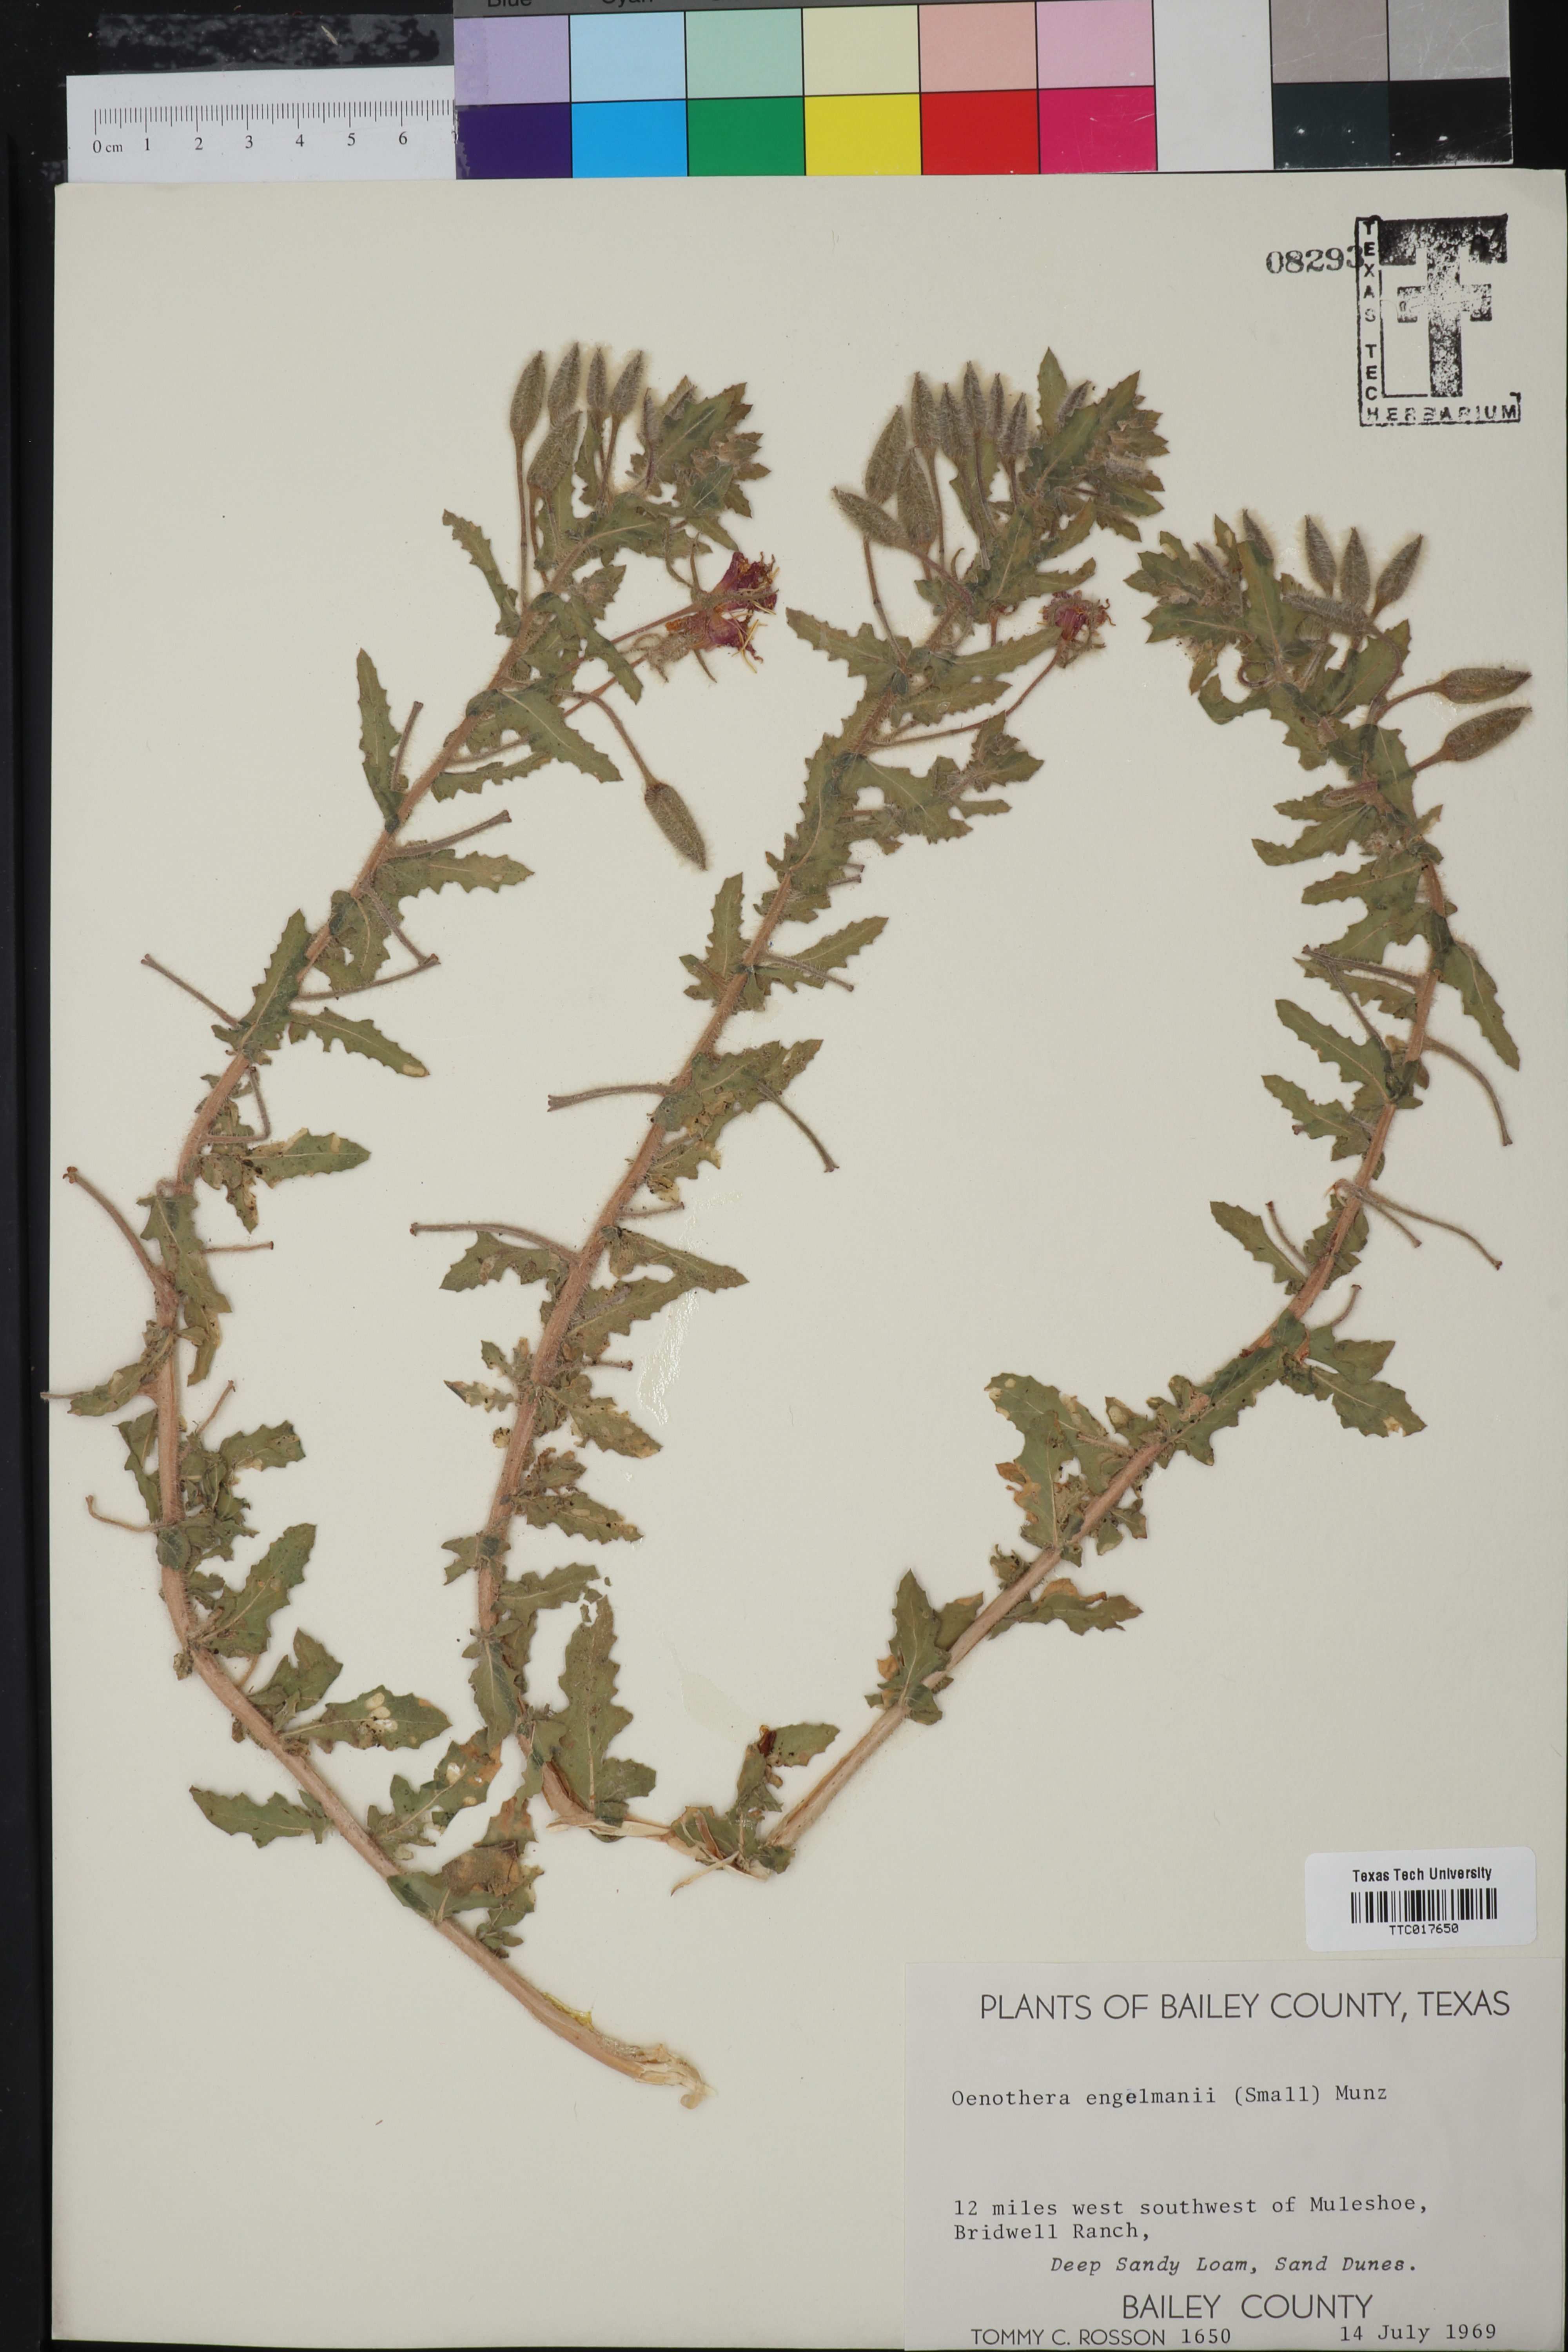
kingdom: Plantae
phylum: Tracheophyta
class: Magnoliopsida
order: Myrtales
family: Onagraceae
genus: Oenothera
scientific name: Oenothera engelmannii
